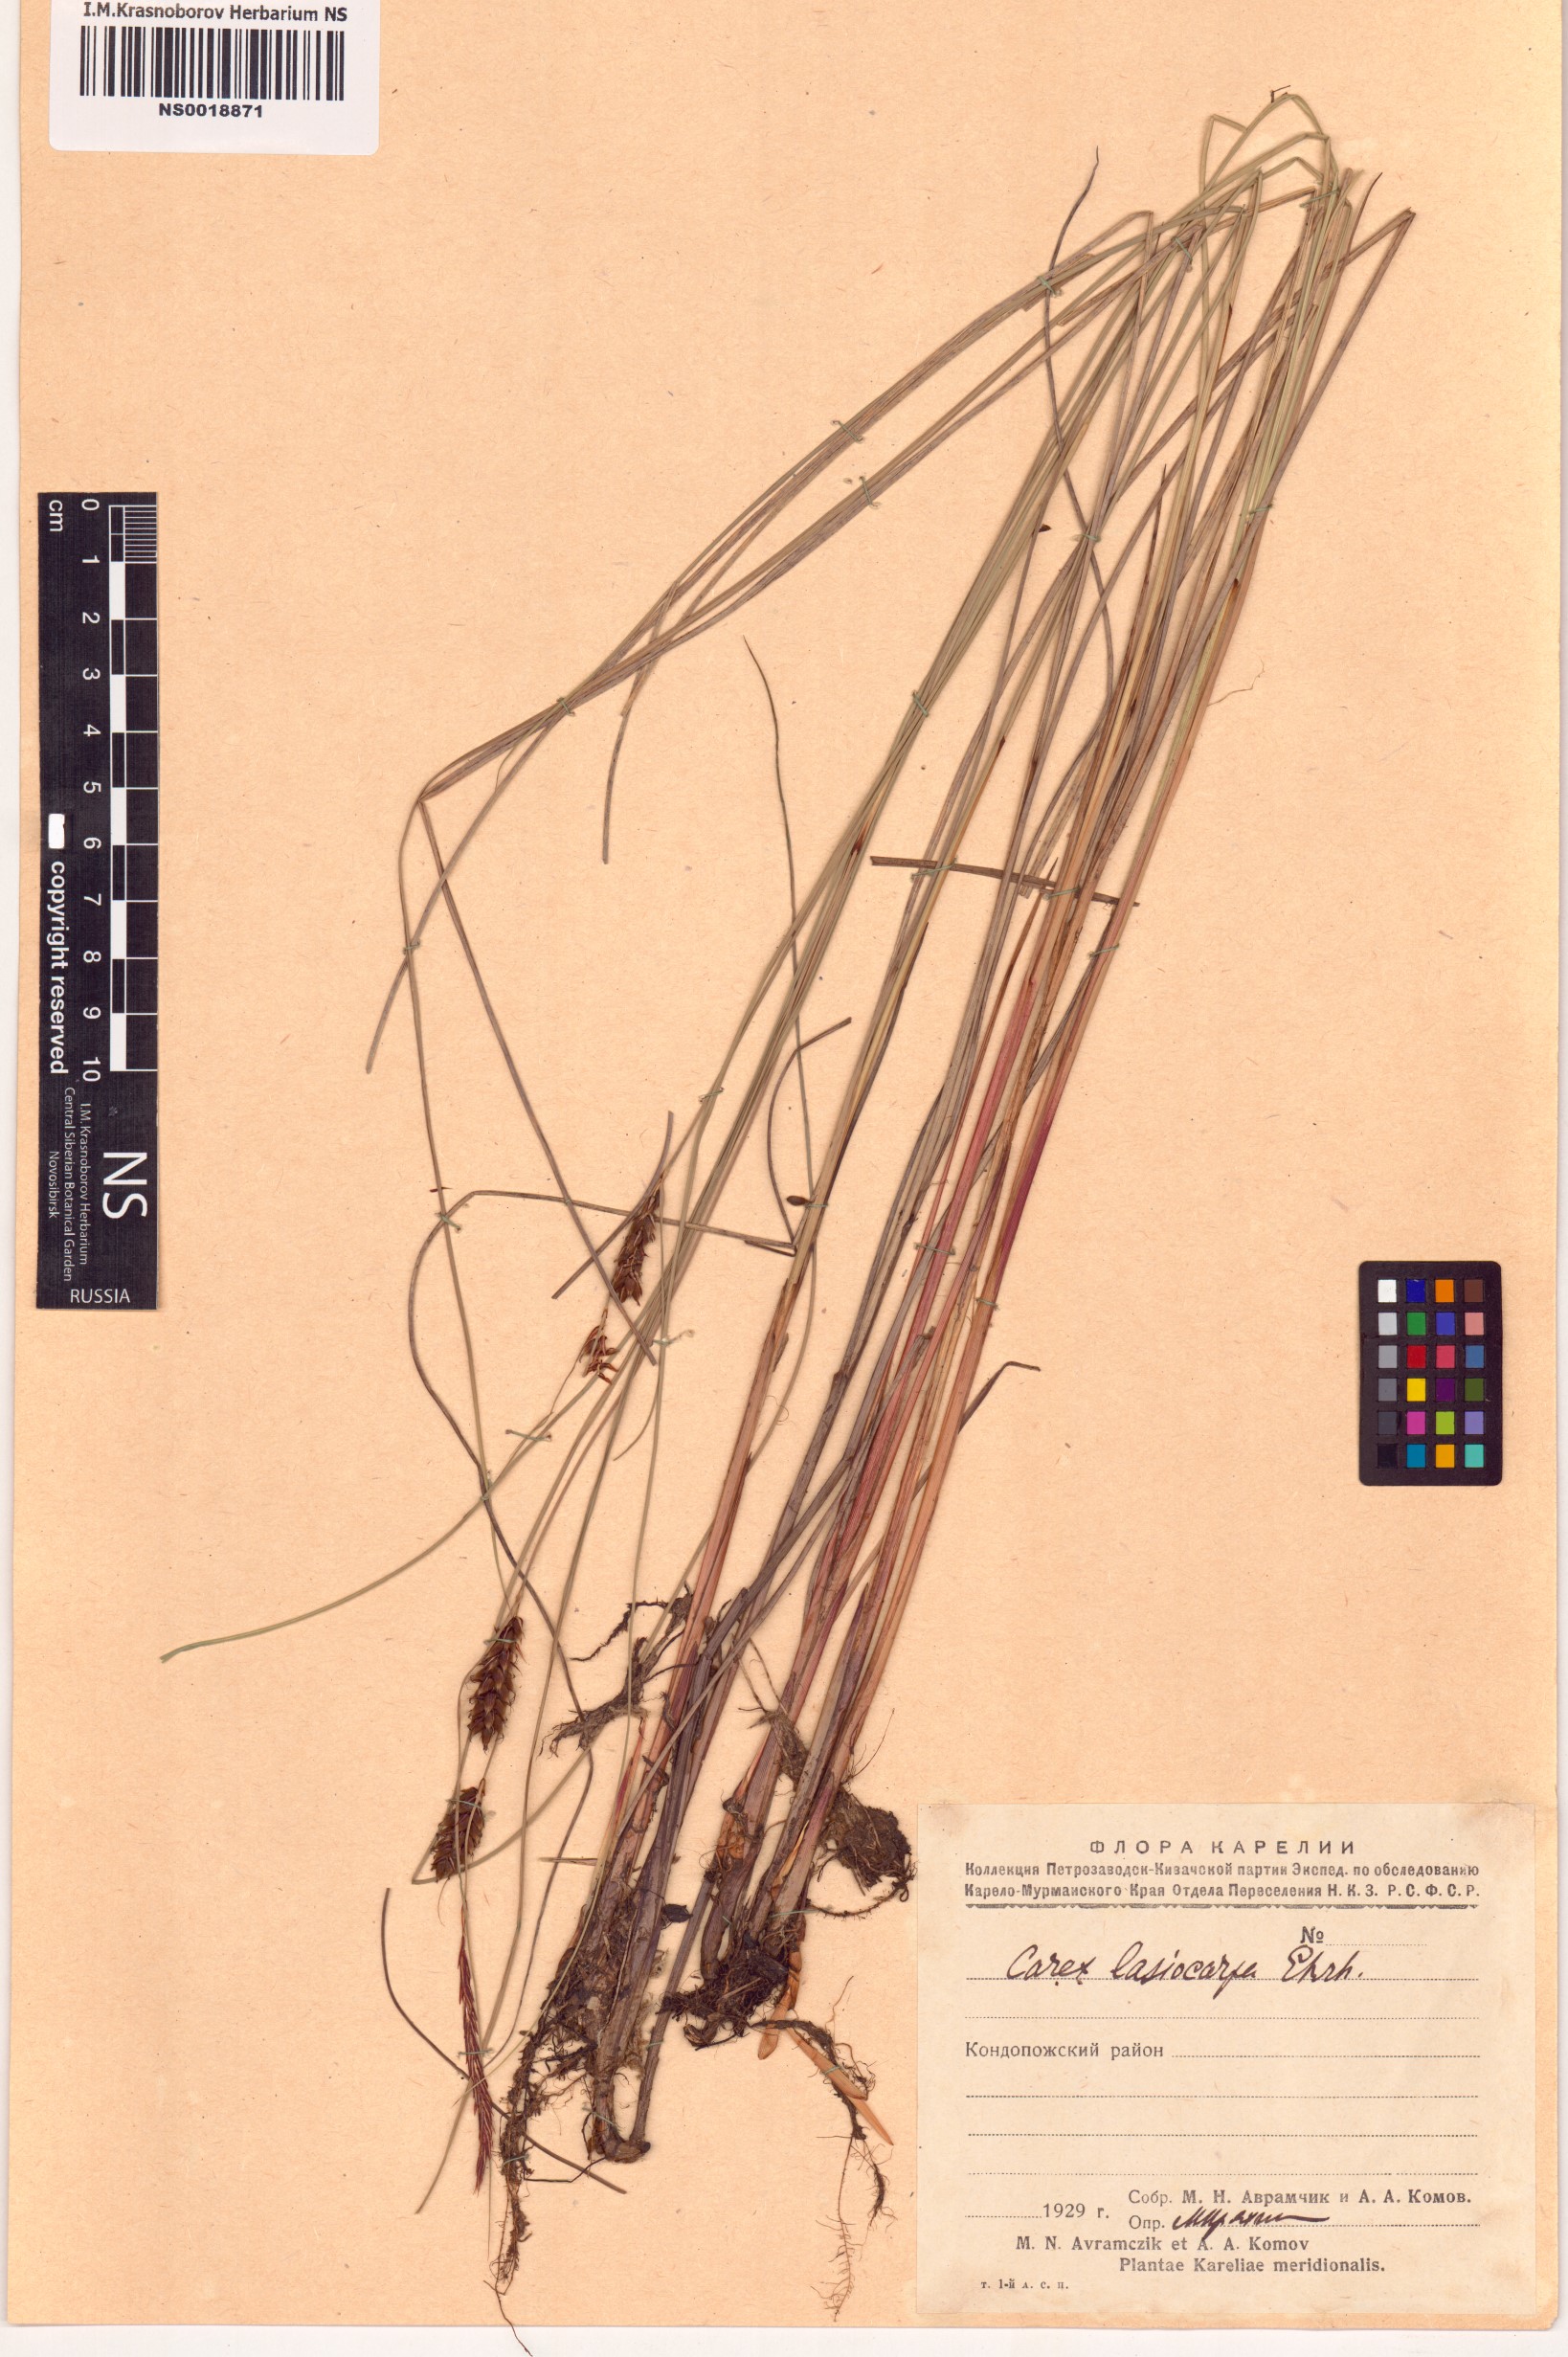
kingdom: Plantae
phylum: Tracheophyta
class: Liliopsida
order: Poales
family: Cyperaceae
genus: Carex
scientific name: Carex lasiocarpa
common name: Slender sedge
